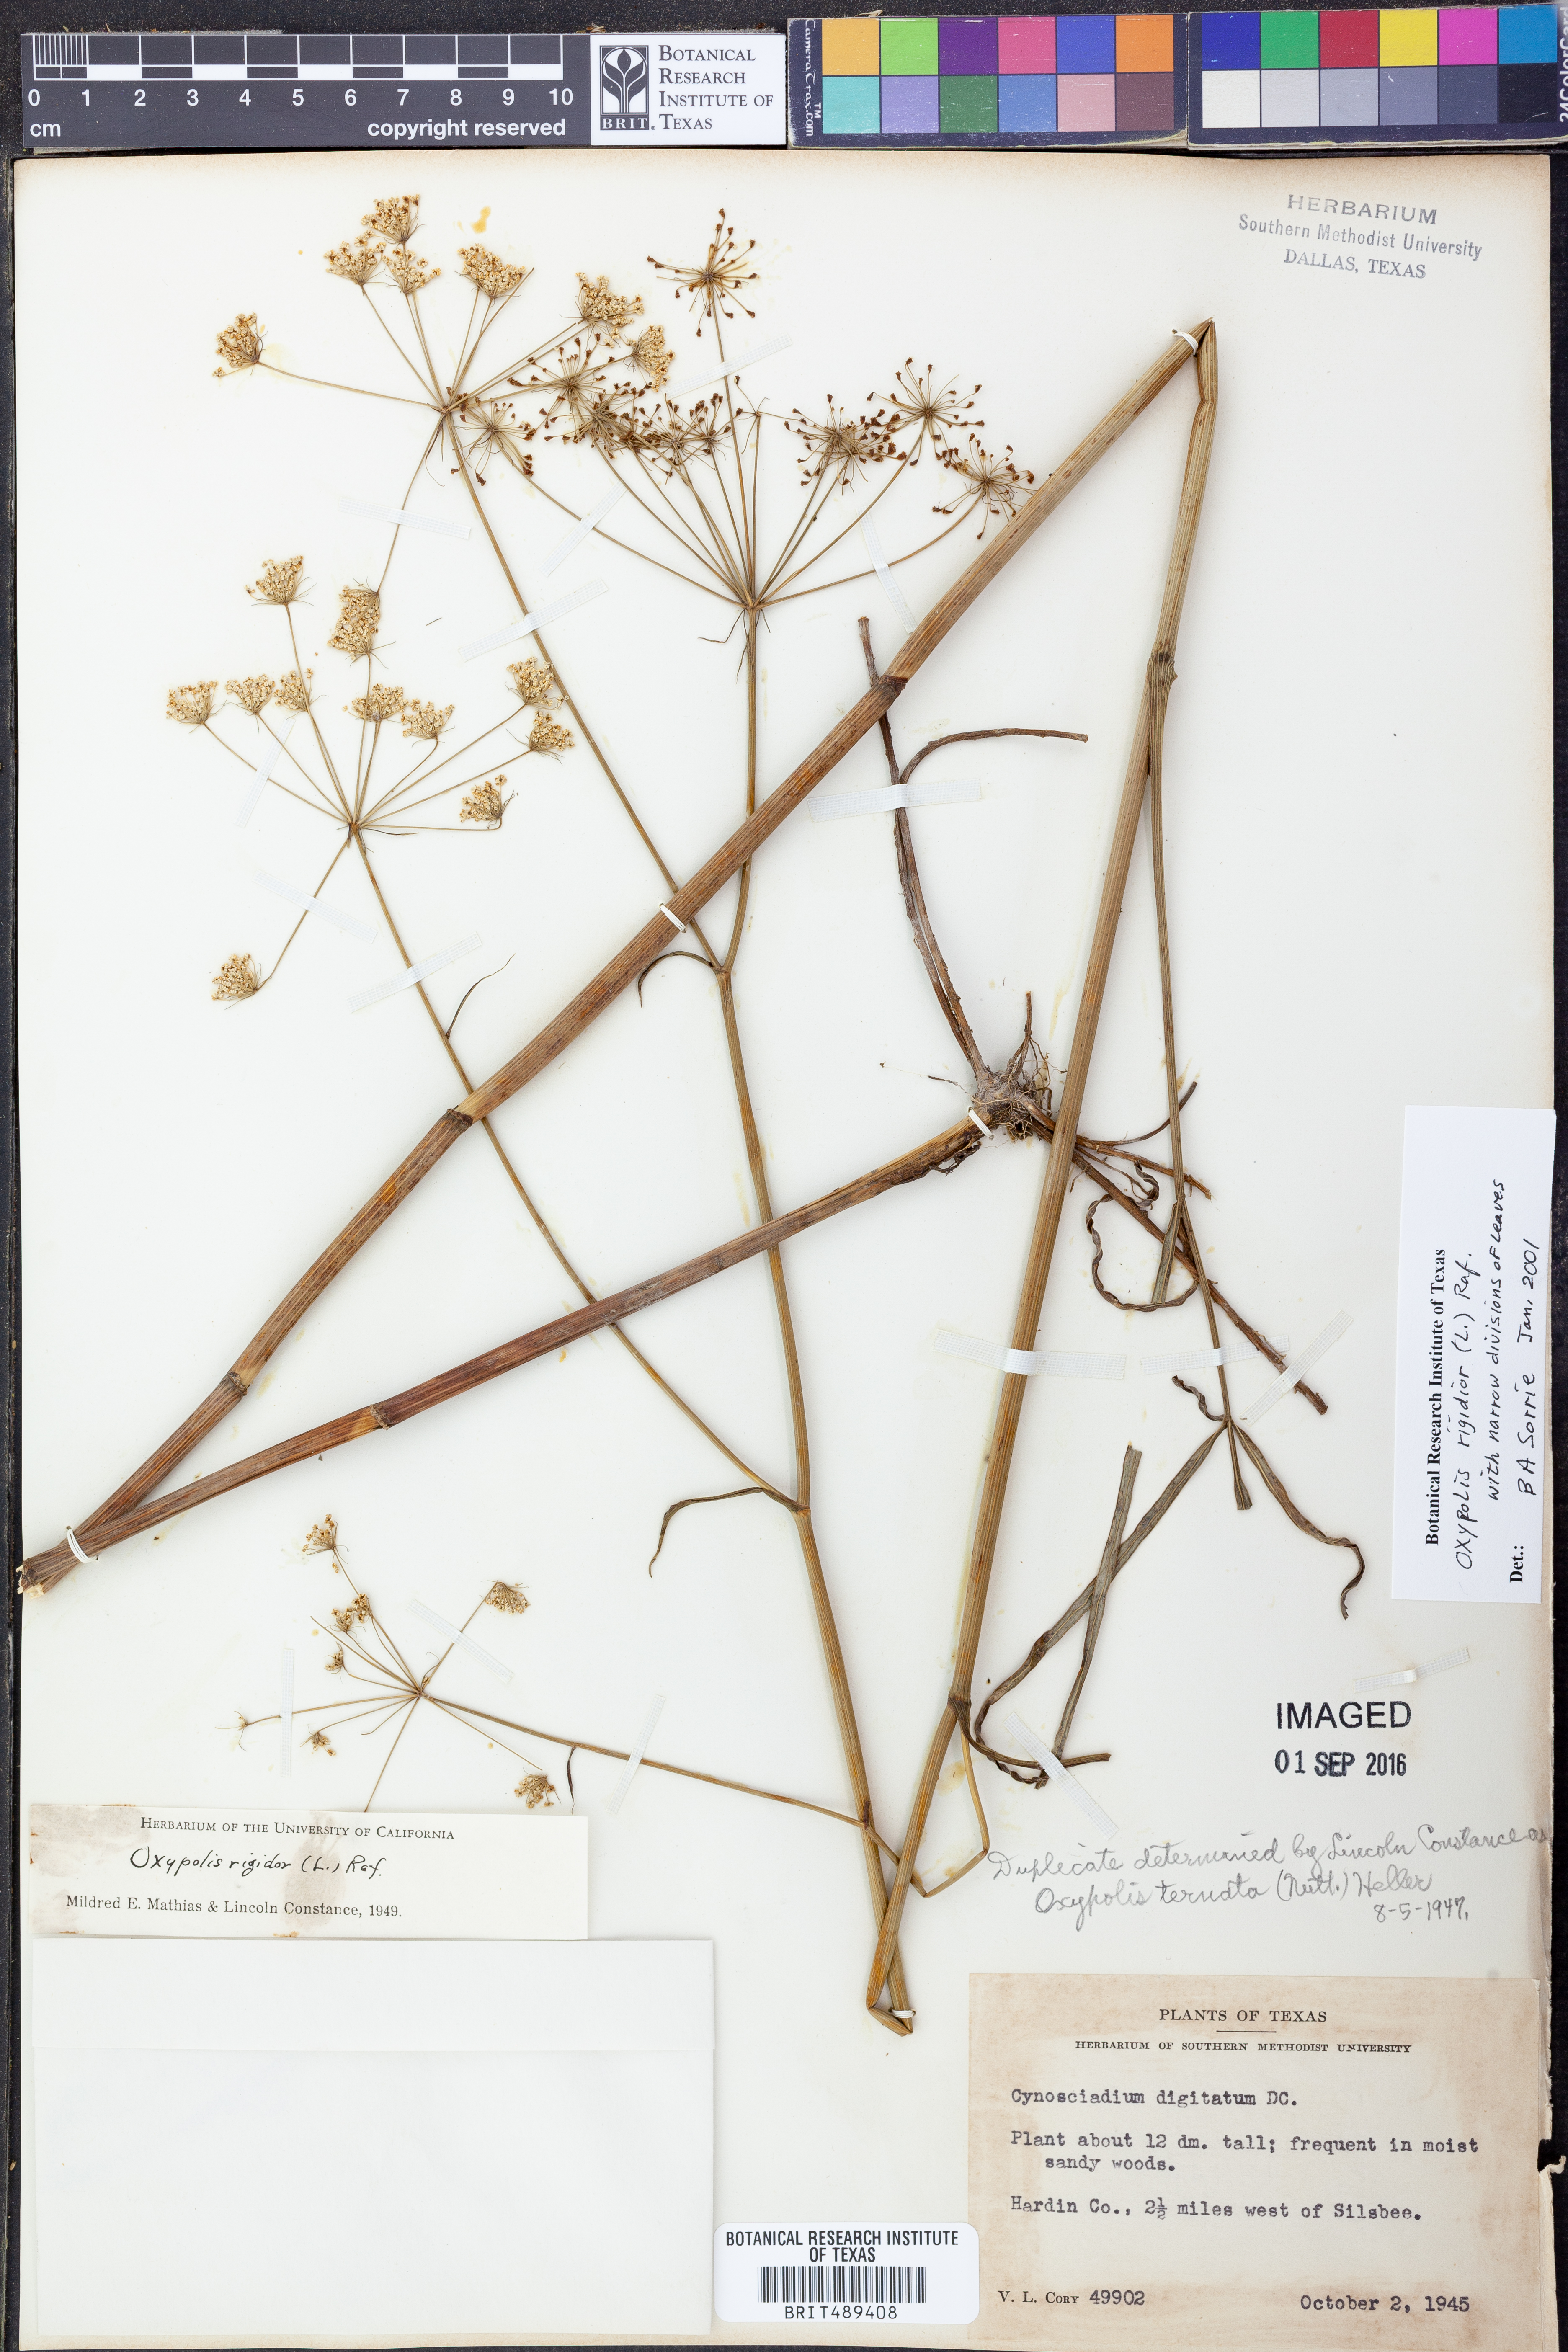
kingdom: Plantae
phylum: Tracheophyta
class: Magnoliopsida
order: Apiales
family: Apiaceae
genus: Oxypolis
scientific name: Oxypolis rigidior
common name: Cowbane
